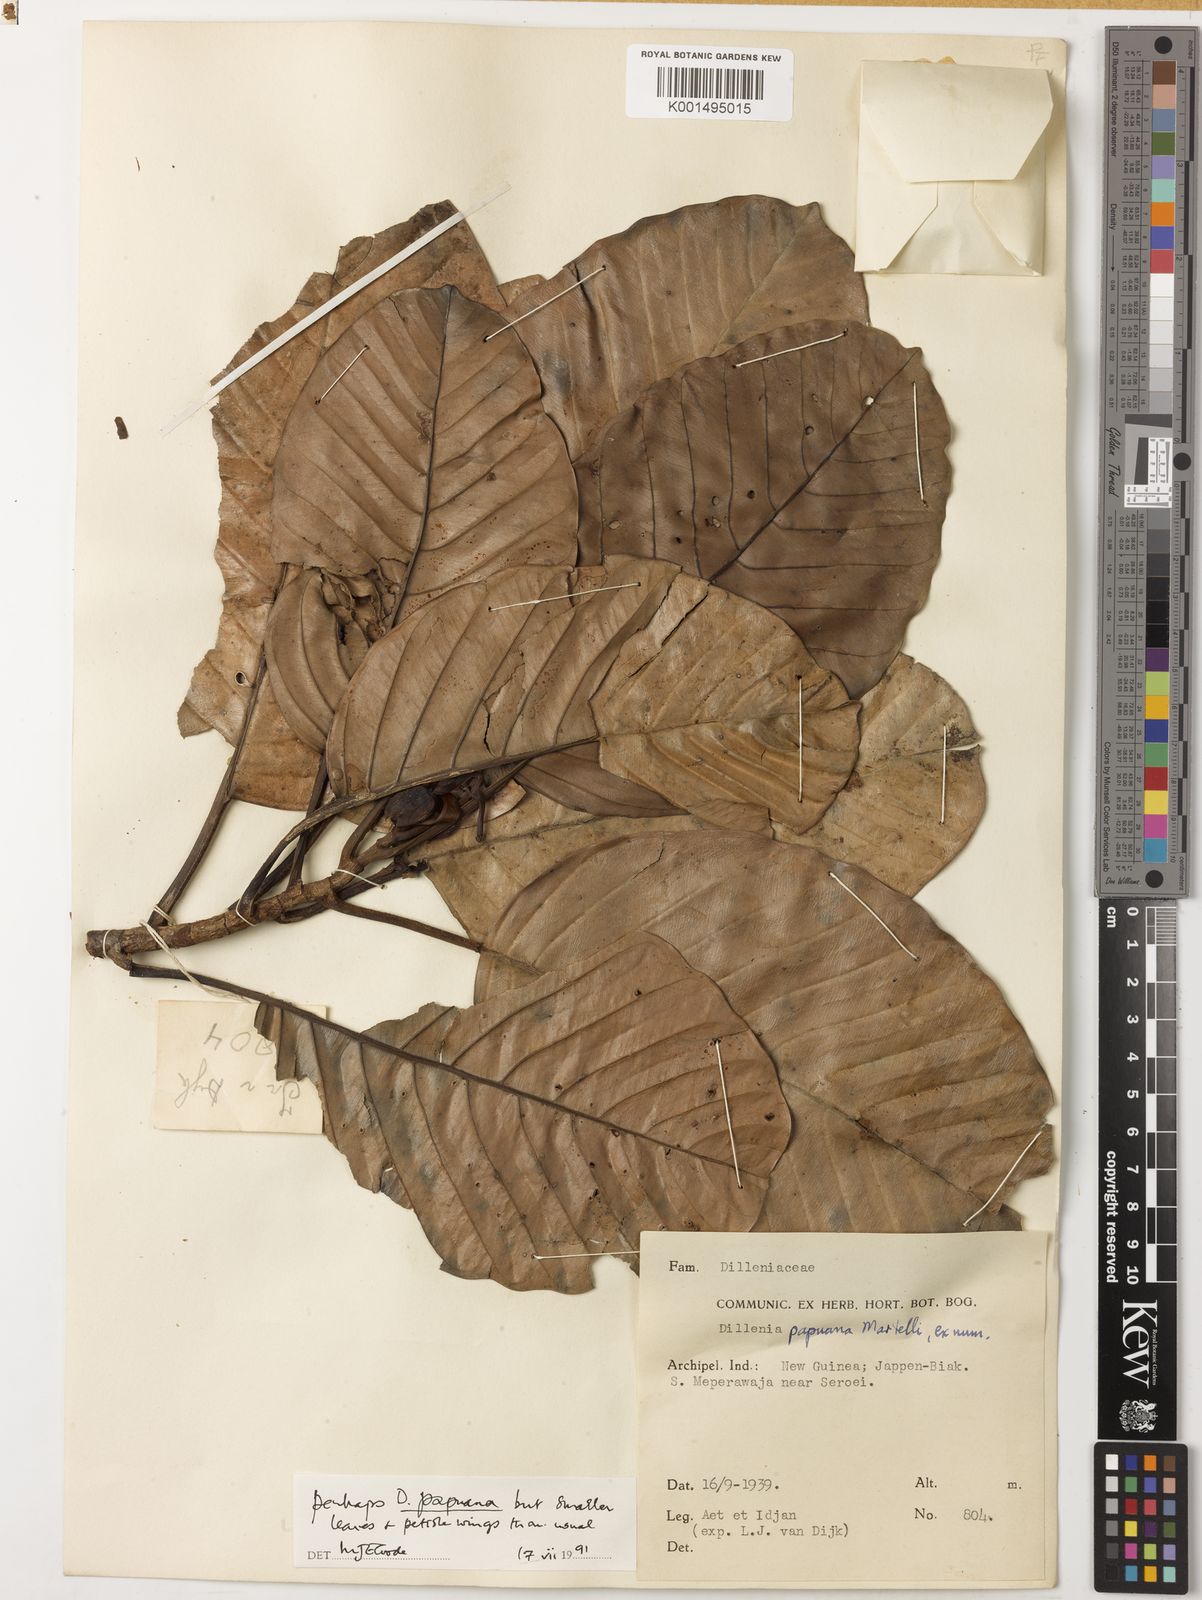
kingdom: Plantae
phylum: Tracheophyta
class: Magnoliopsida
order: Dilleniales
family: Dilleniaceae
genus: Dillenia
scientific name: Dillenia papuana
